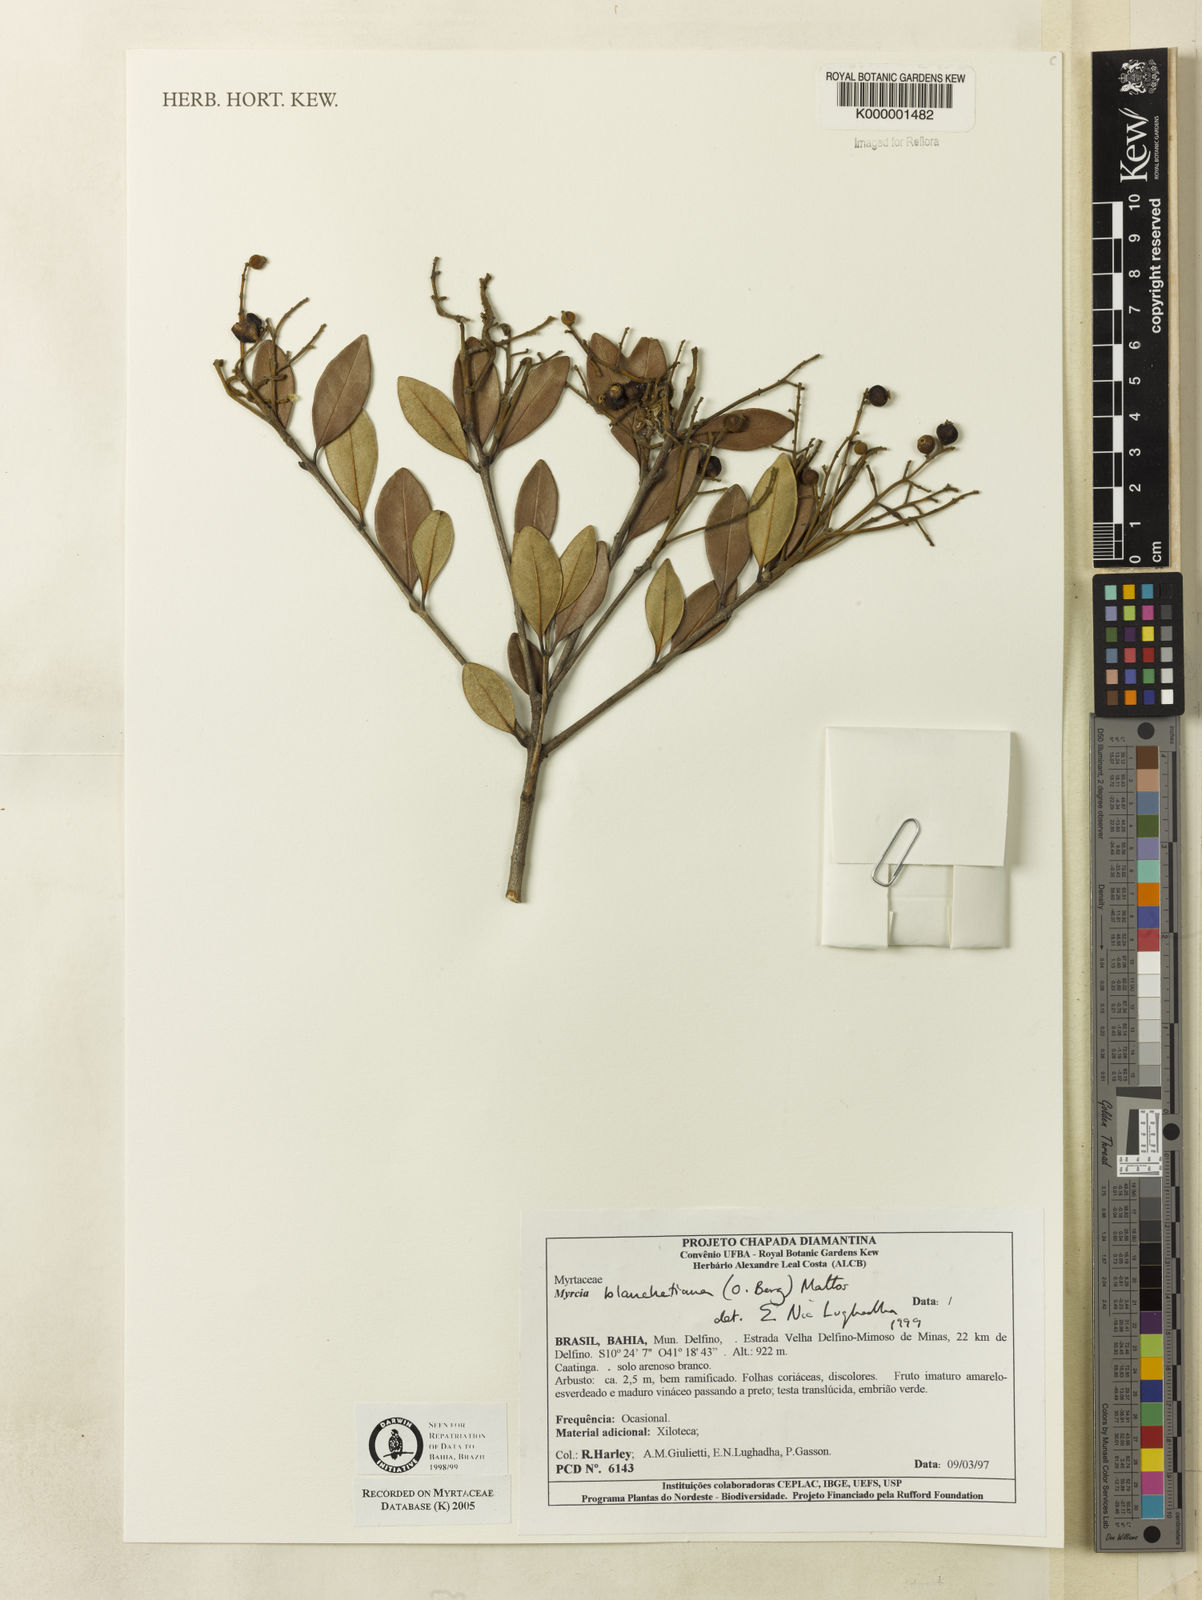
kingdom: Plantae
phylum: Tracheophyta
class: Magnoliopsida
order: Myrtales
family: Myrtaceae
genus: Myrcia
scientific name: Myrcia blanchetiana
